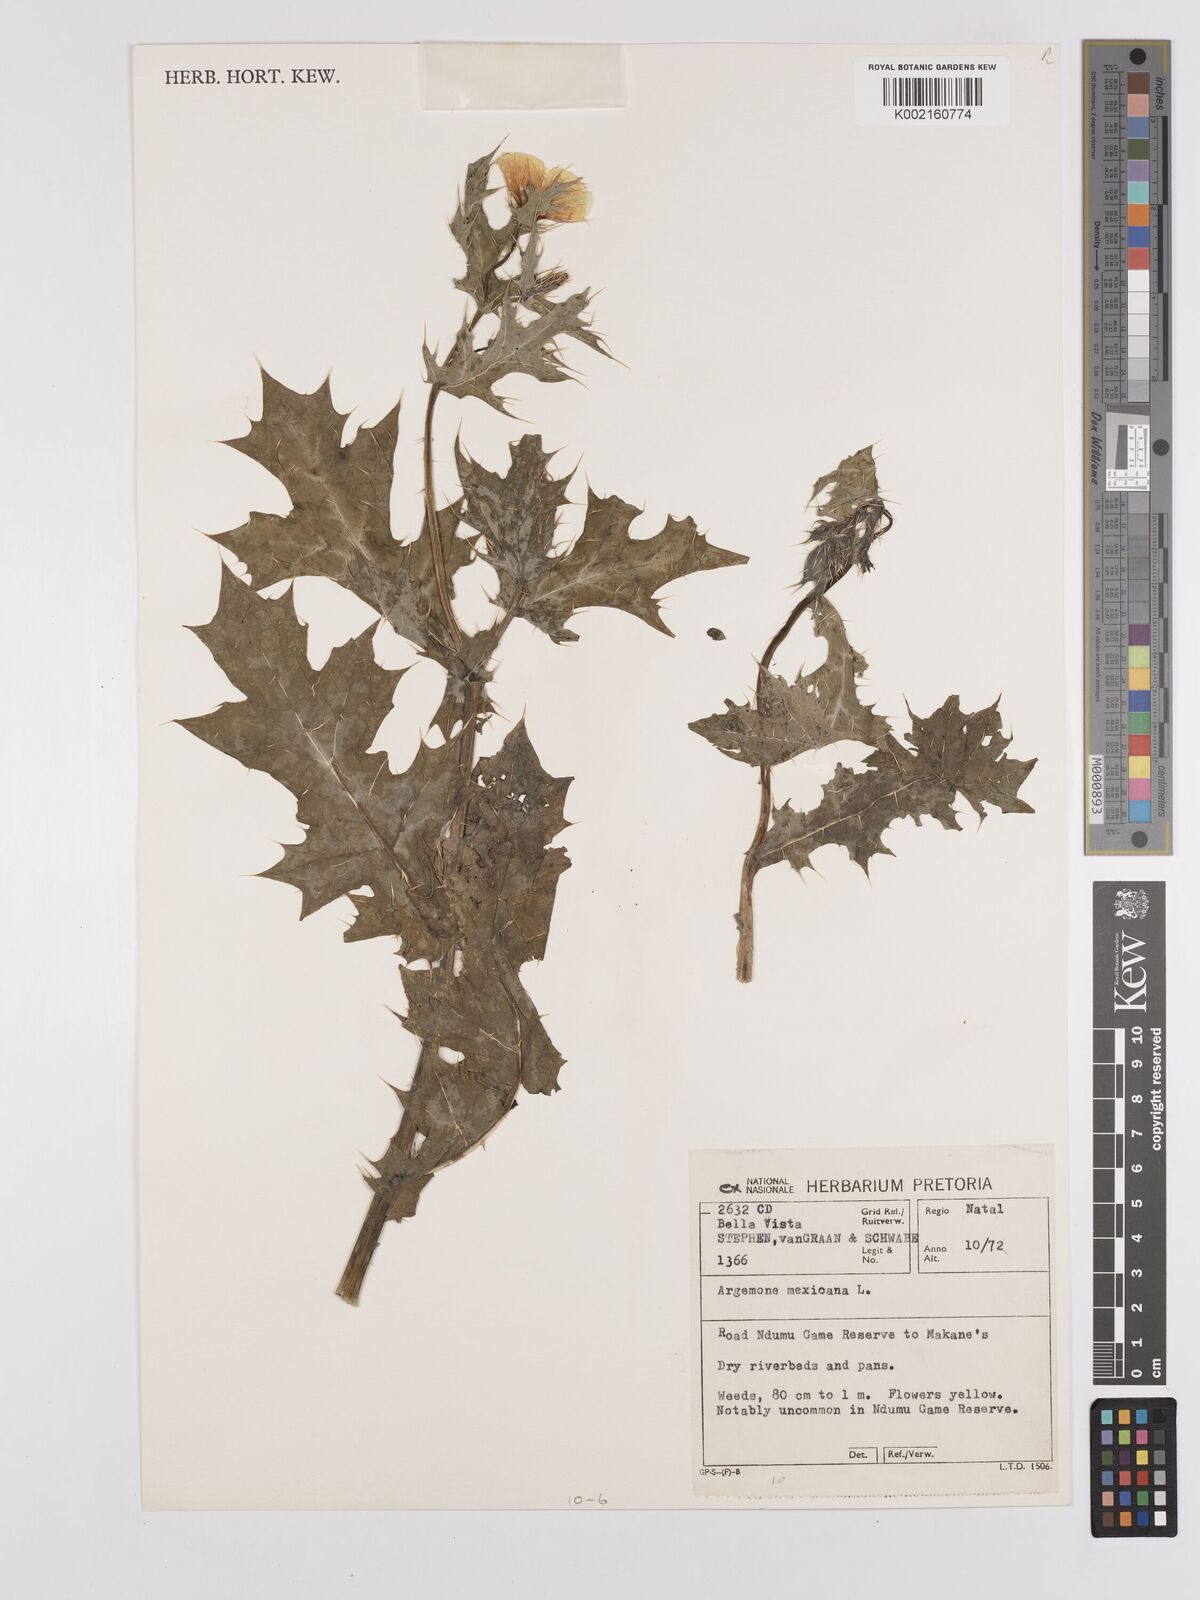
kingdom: Plantae
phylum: Tracheophyta
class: Magnoliopsida
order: Ranunculales
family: Papaveraceae
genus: Argemone
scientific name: Argemone mexicana
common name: Mexican poppy
